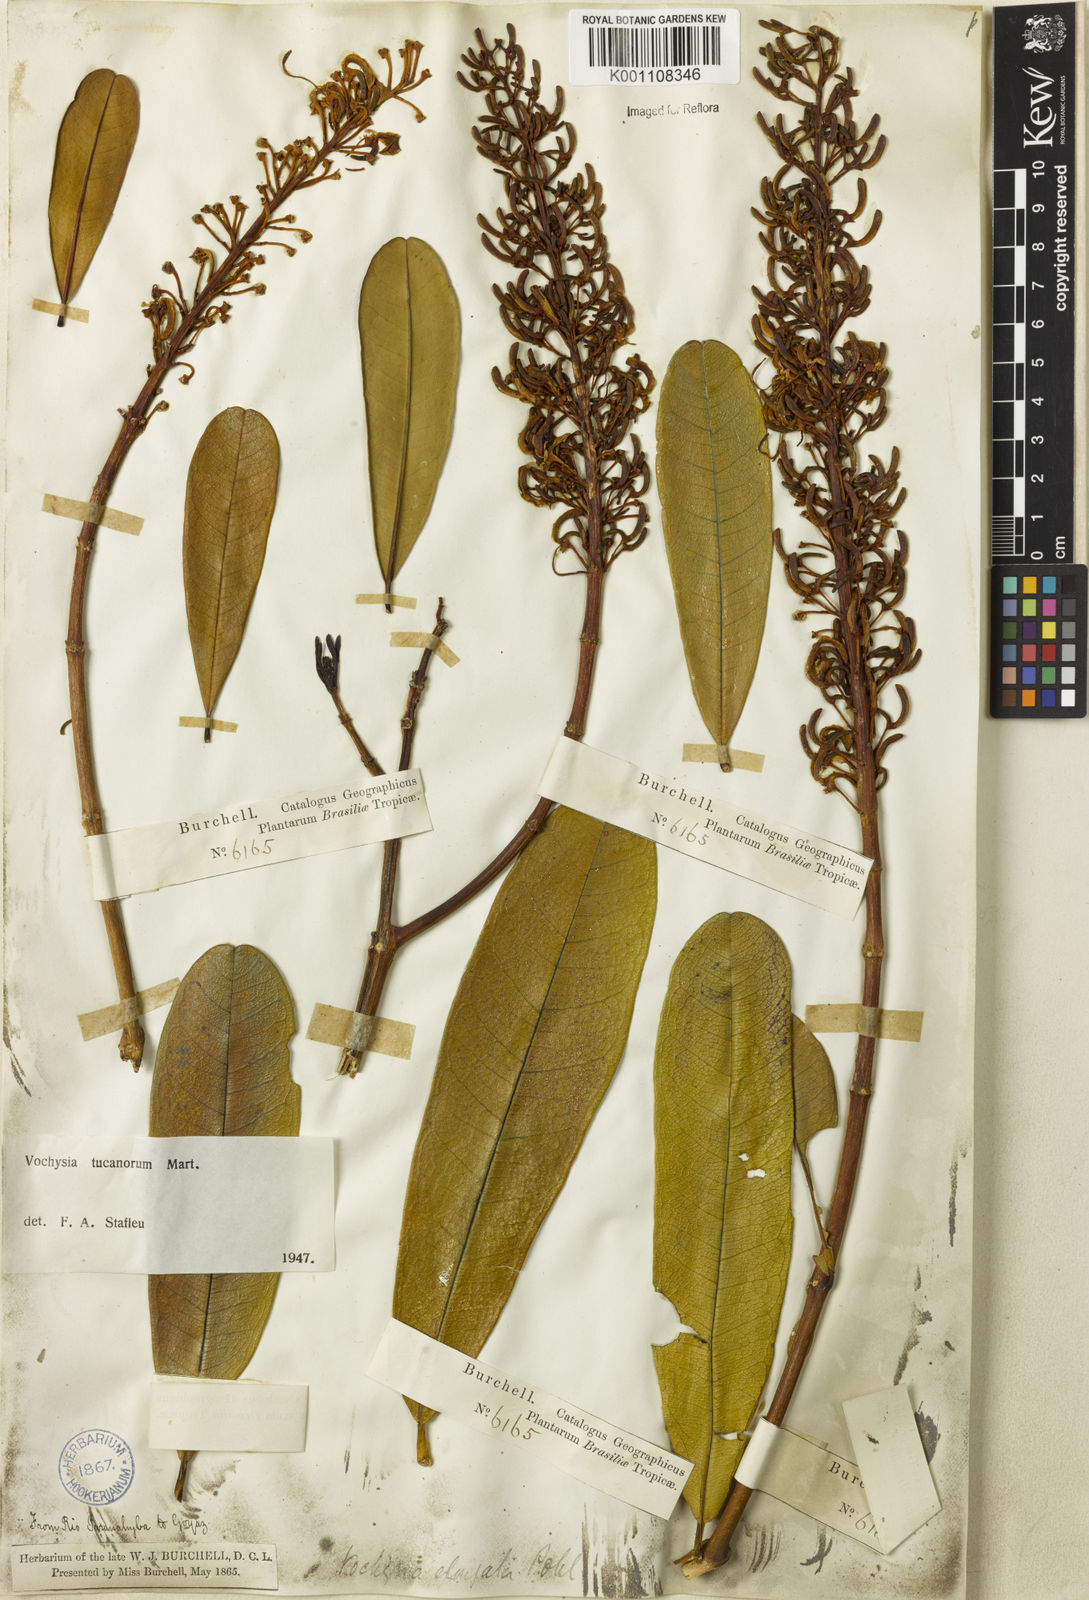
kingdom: Plantae
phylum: Tracheophyta
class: Magnoliopsida
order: Myrtales
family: Vochysiaceae
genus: Vochysia
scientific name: Vochysia tucanorum
